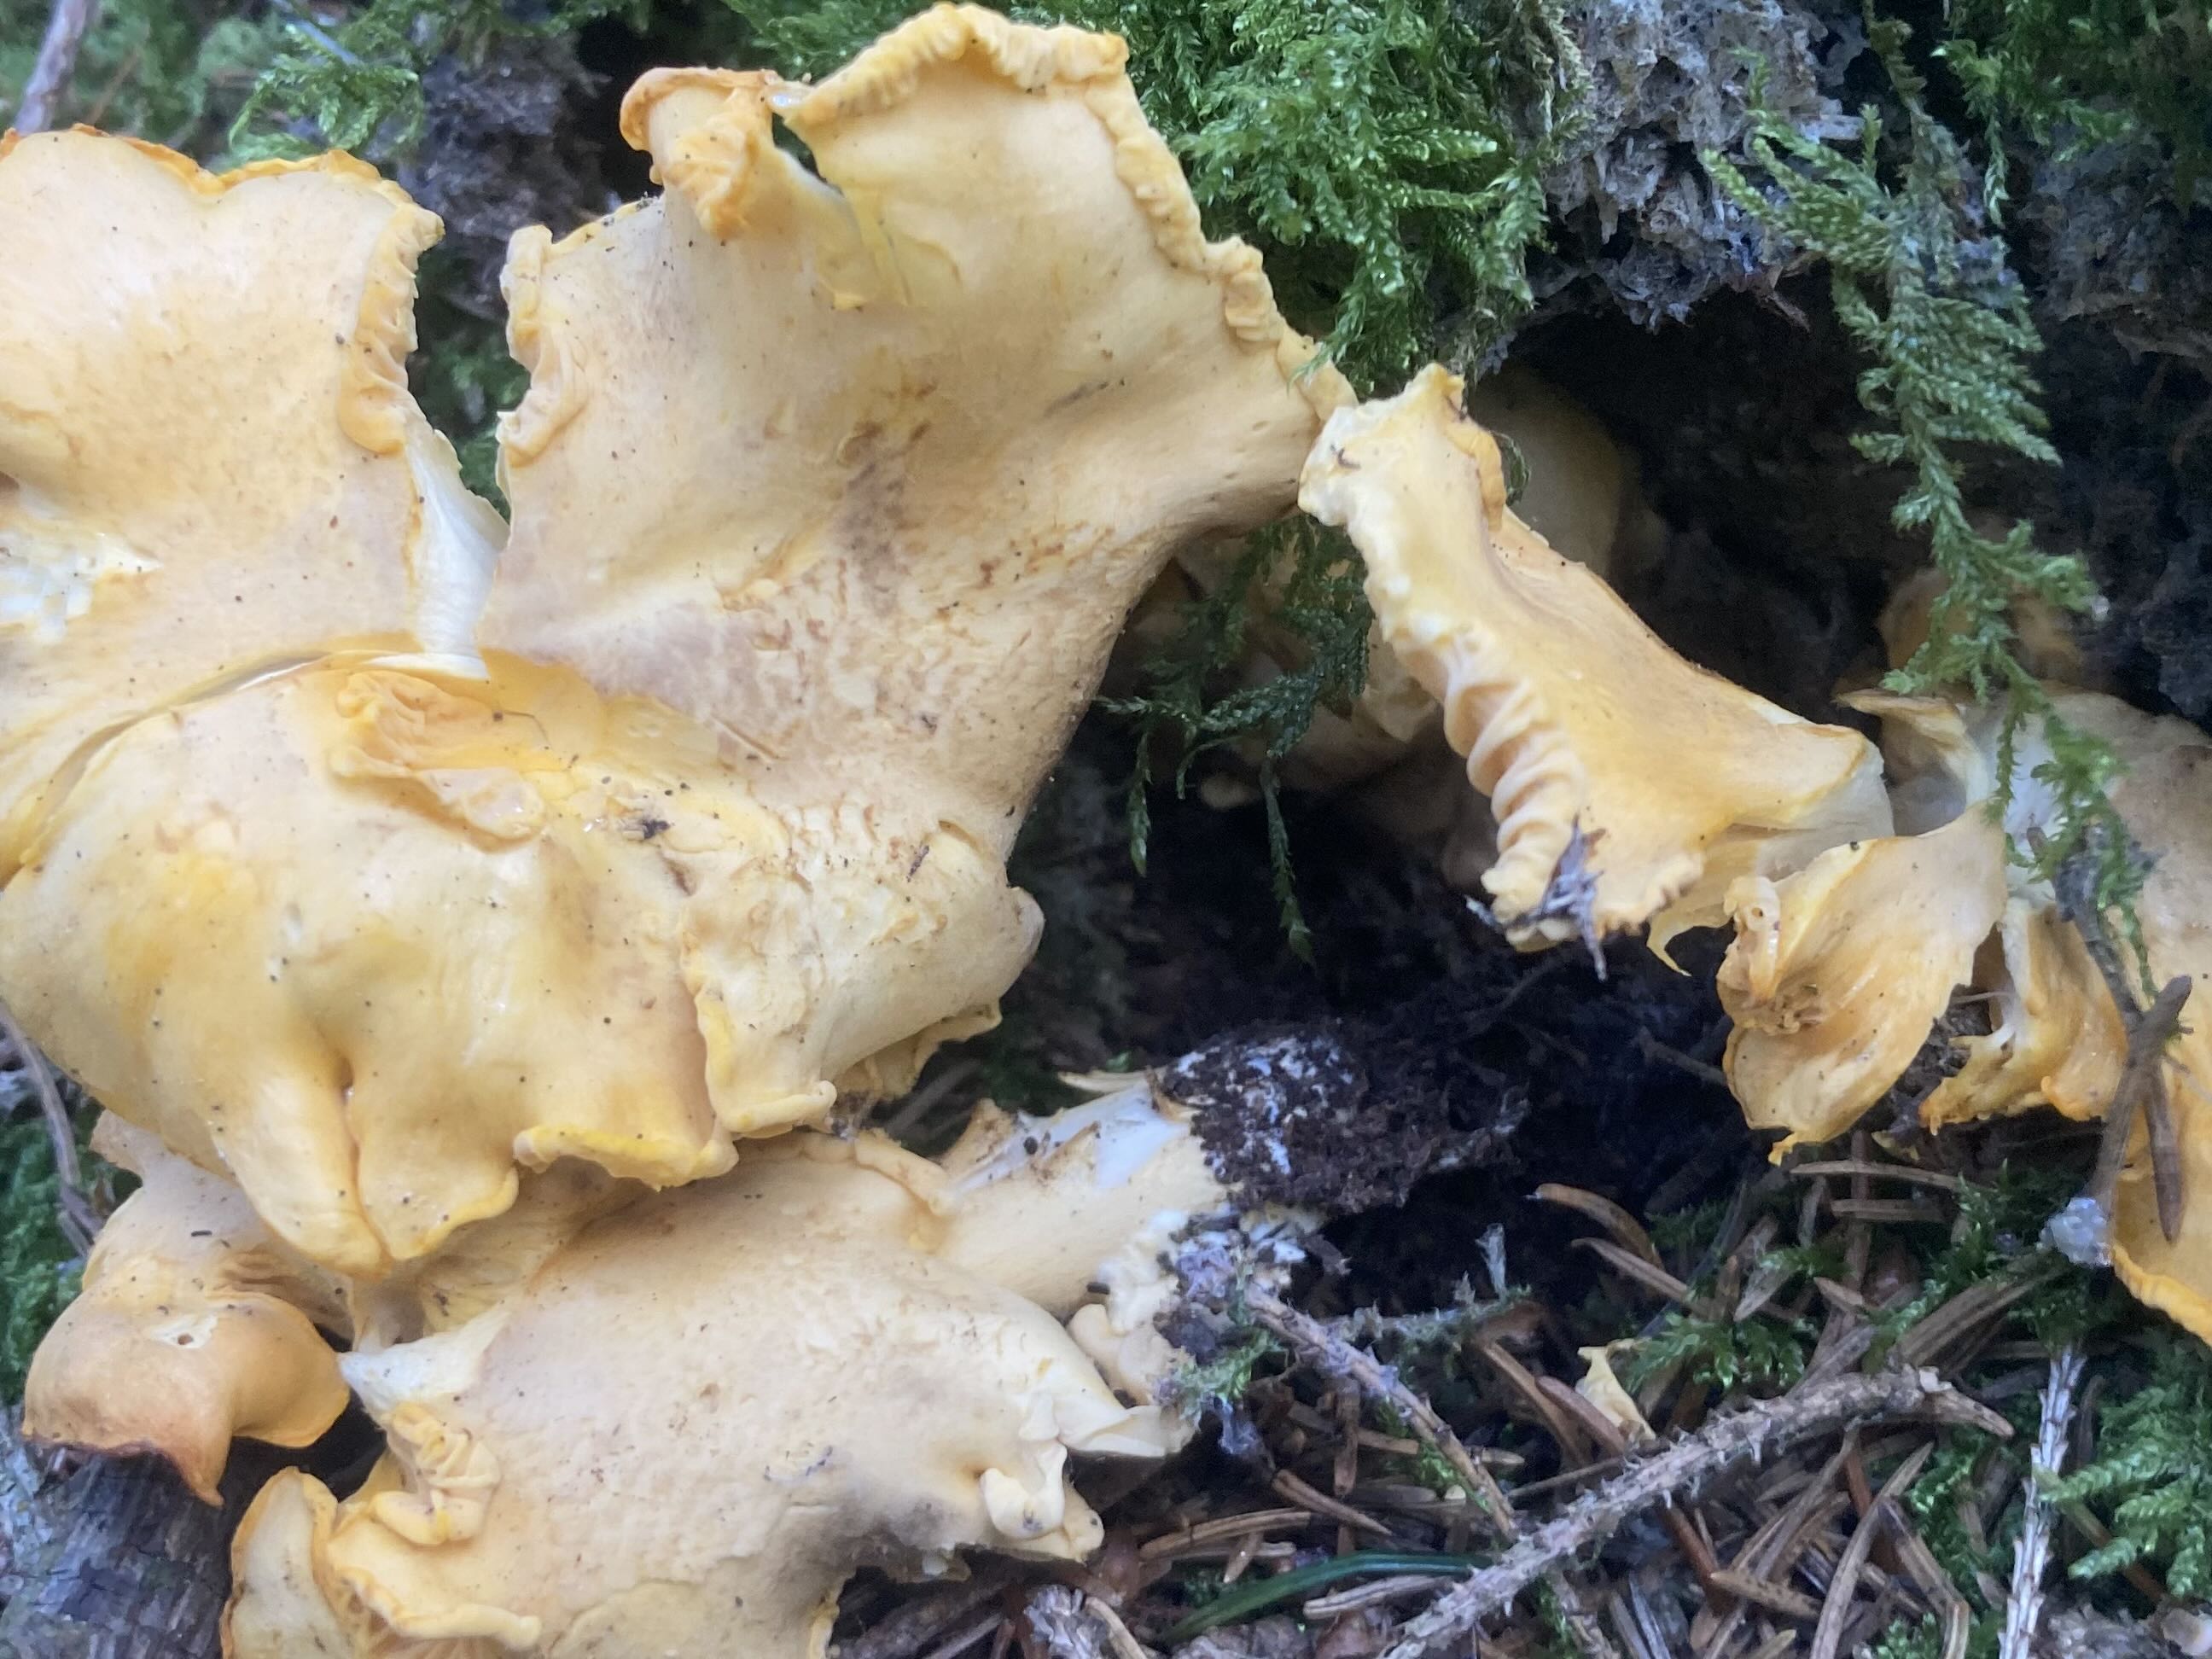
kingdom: Fungi
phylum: Basidiomycota
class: Agaricomycetes
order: Cantharellales
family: Hydnaceae
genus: Cantharellus
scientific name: Cantharellus amethysteus
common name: ametyst-kantarel
